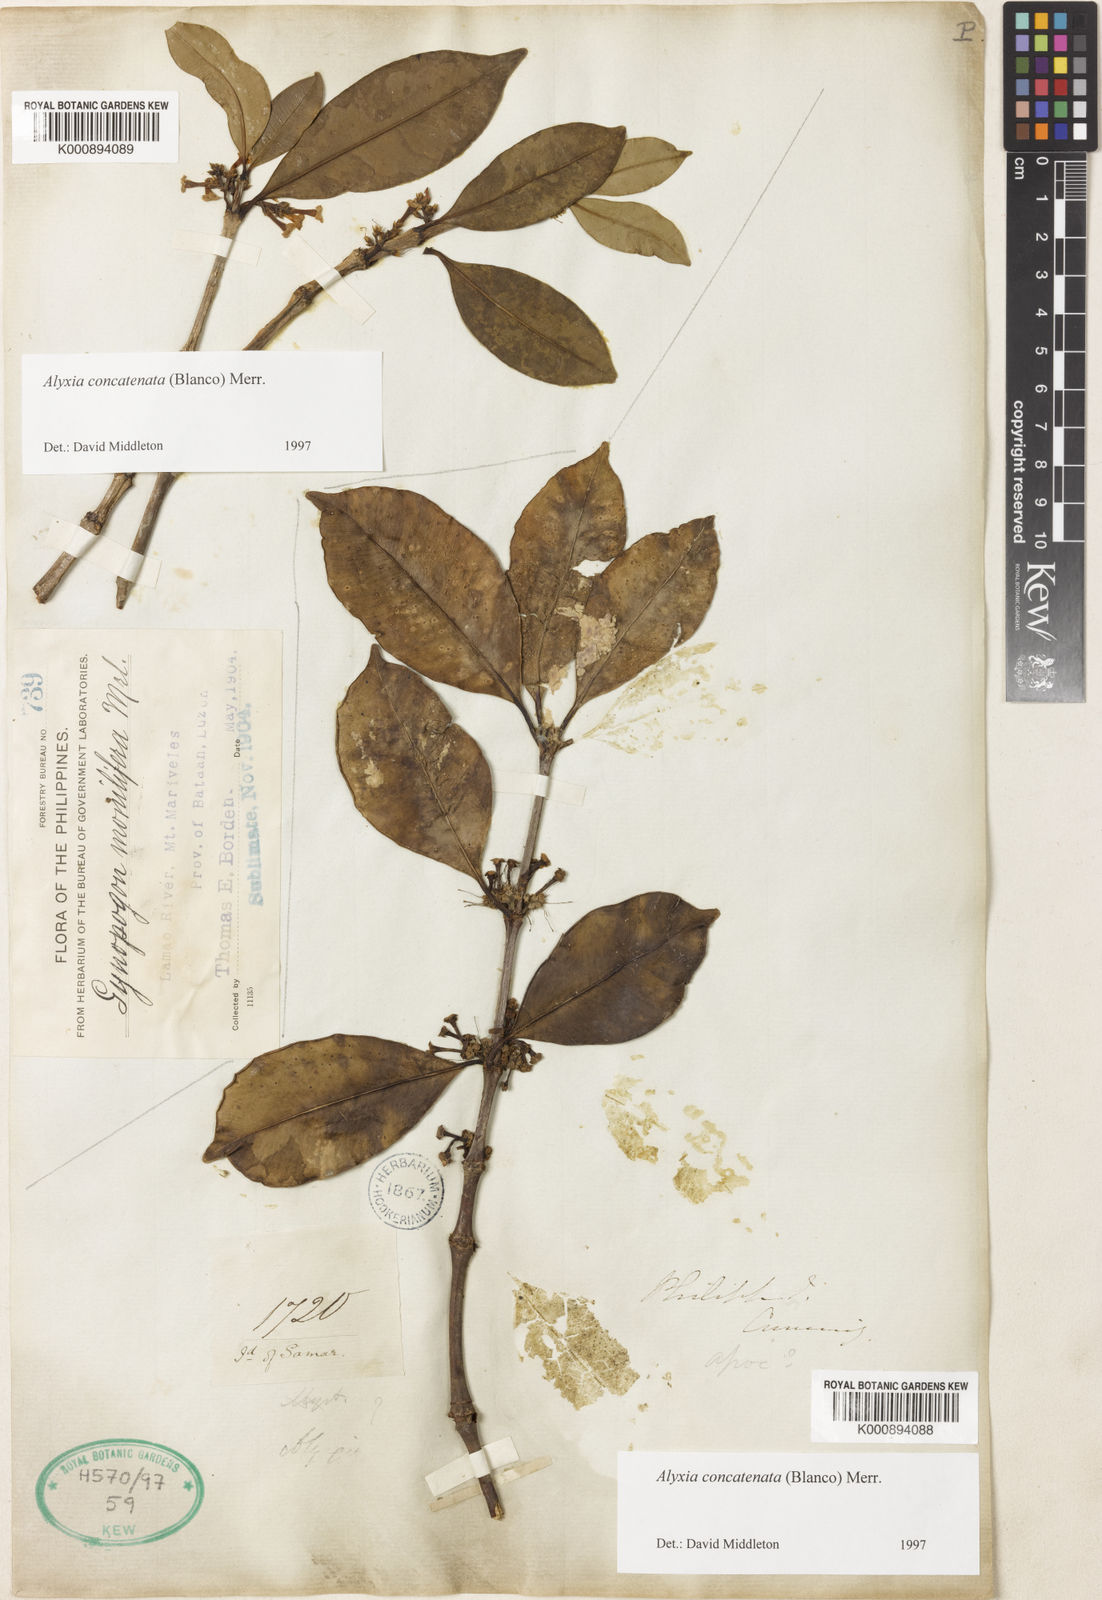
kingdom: Plantae
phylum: Tracheophyta
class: Magnoliopsida
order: Gentianales
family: Apocynaceae
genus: Alyxia
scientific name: Alyxia concatenata
